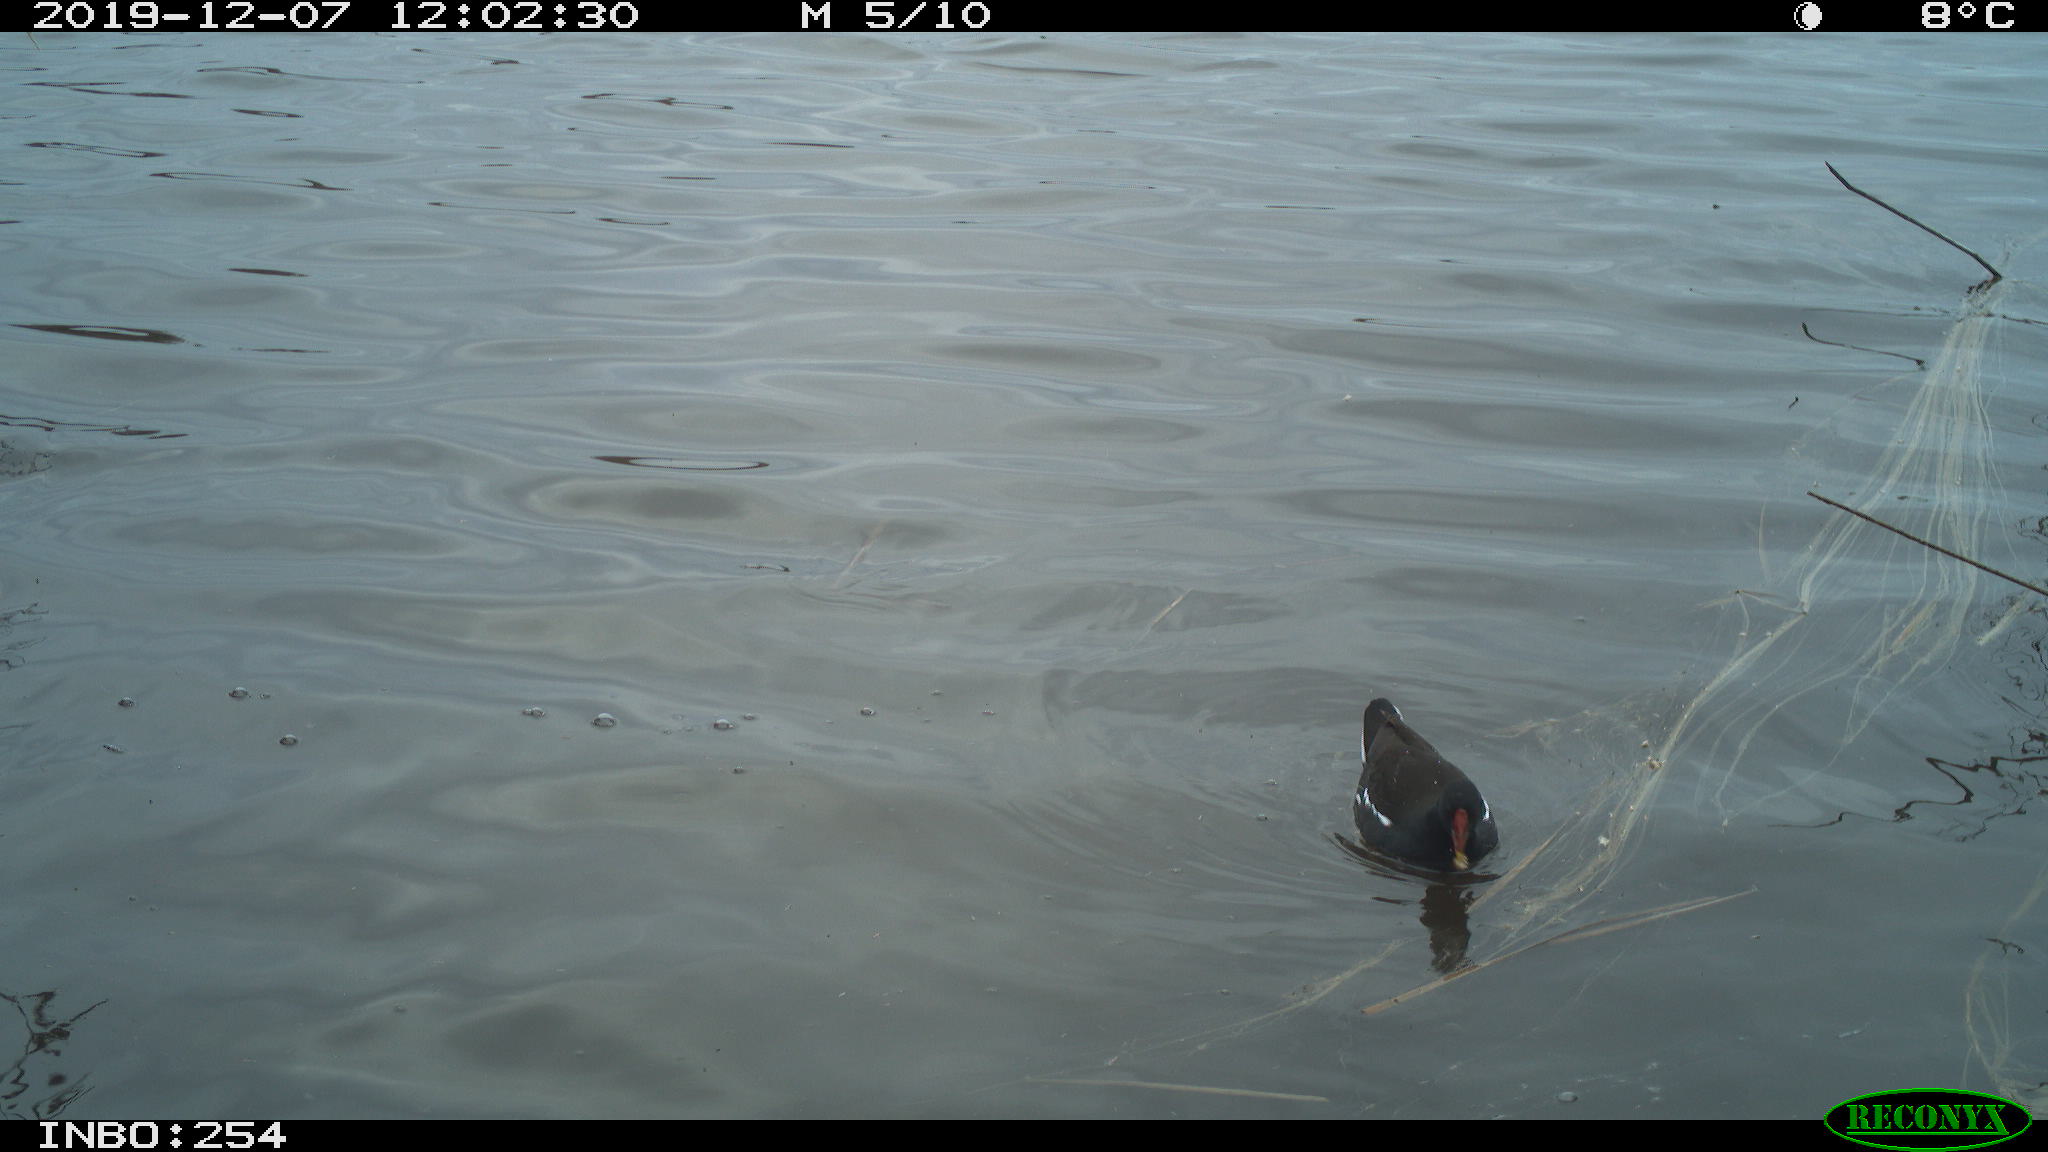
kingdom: Animalia
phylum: Chordata
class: Aves
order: Gruiformes
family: Rallidae
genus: Gallinula
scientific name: Gallinula chloropus
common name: Common moorhen
